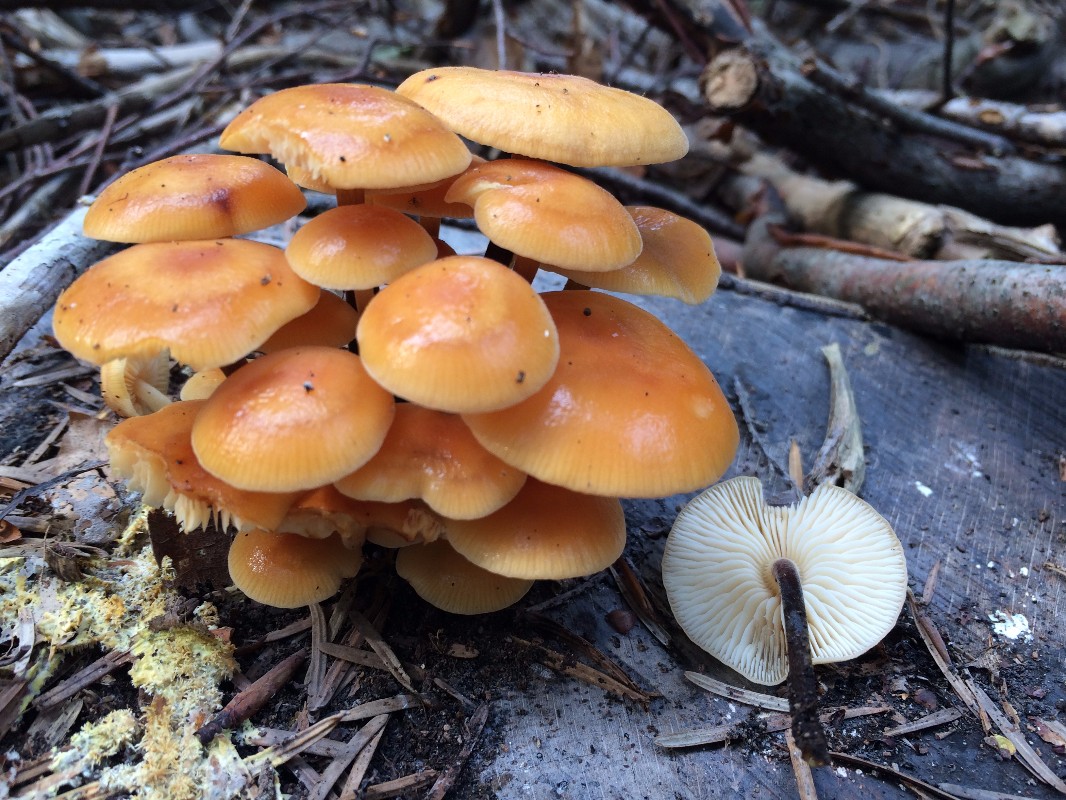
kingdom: Fungi
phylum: Basidiomycota
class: Agaricomycetes
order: Agaricales
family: Physalacriaceae
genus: Flammulina
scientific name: Flammulina velutipes
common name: gul fløjlsfod
